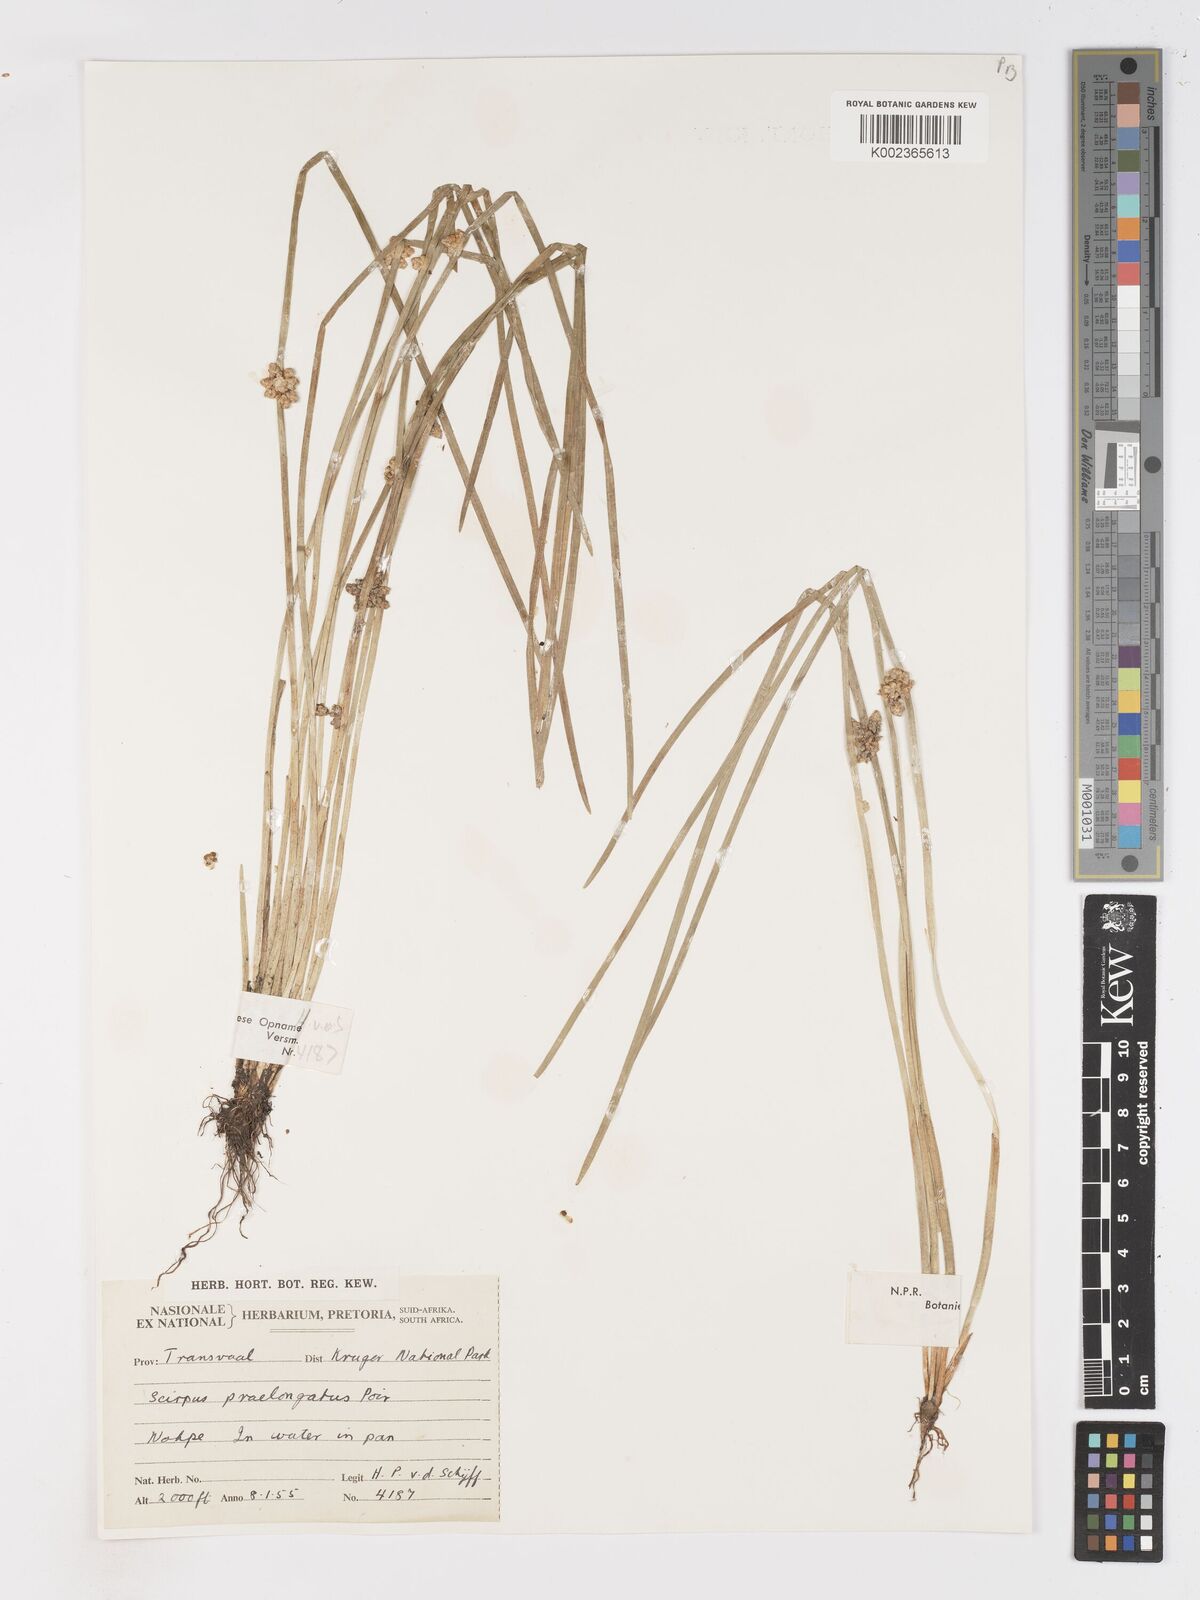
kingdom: Plantae
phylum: Tracheophyta
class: Liliopsida
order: Poales
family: Cyperaceae
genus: Schoenoplectiella
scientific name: Schoenoplectiella praelongata
